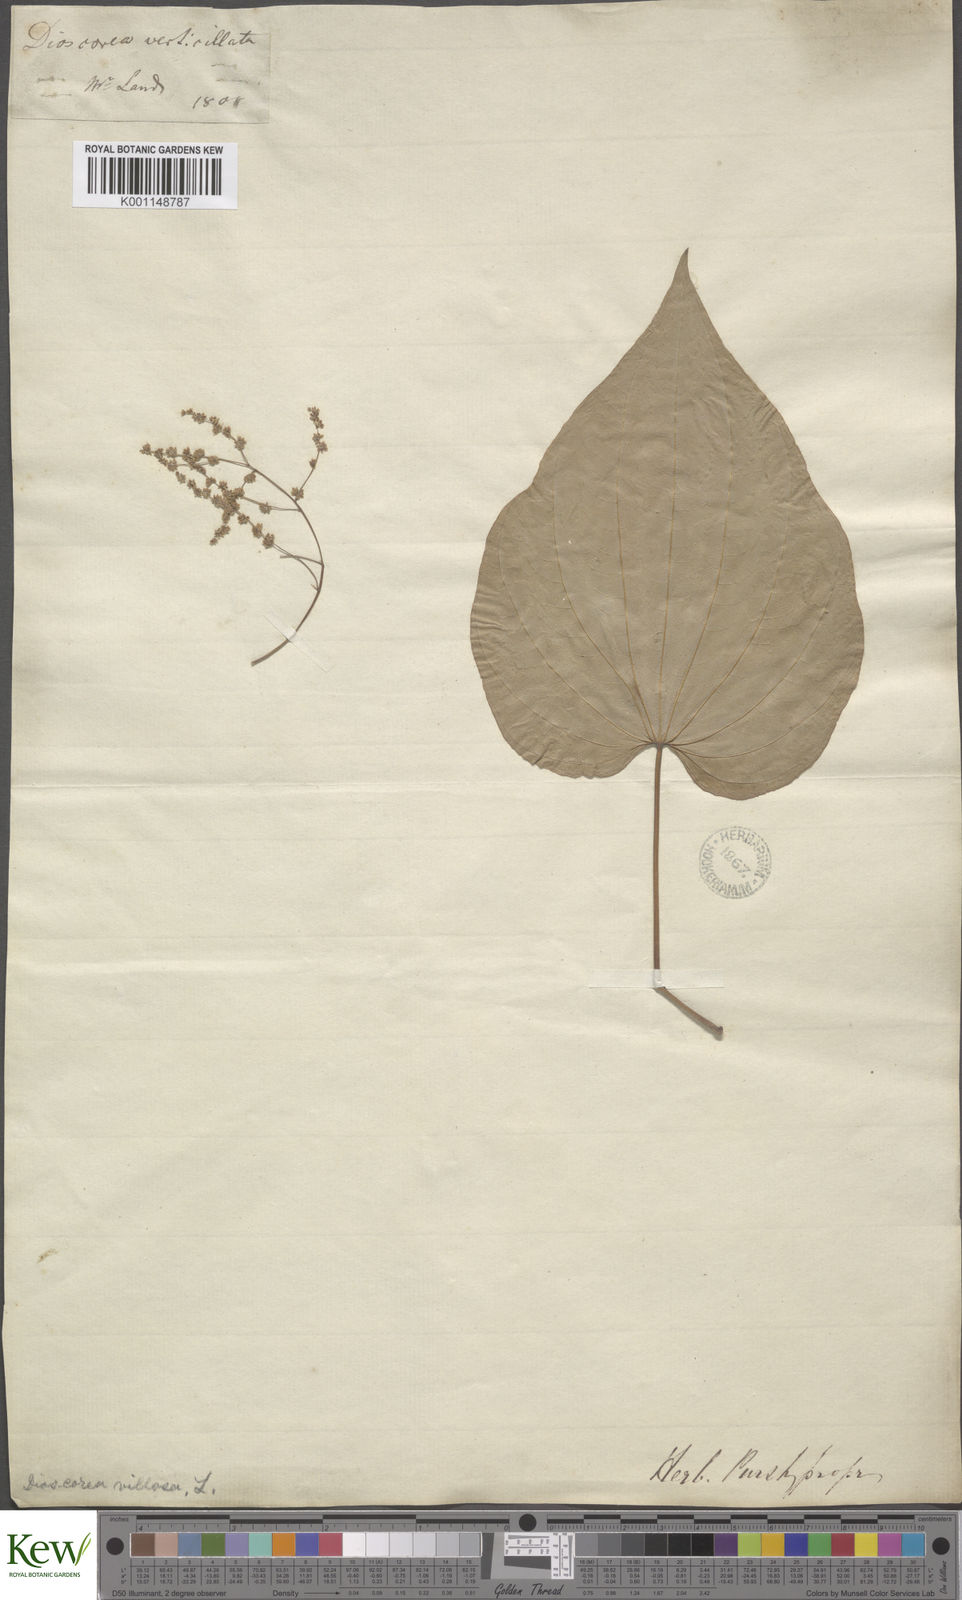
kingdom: Plantae
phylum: Tracheophyta
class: Liliopsida
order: Dioscoreales
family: Dioscoreaceae
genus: Dioscorea
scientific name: Dioscorea villosa
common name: Wild yam
